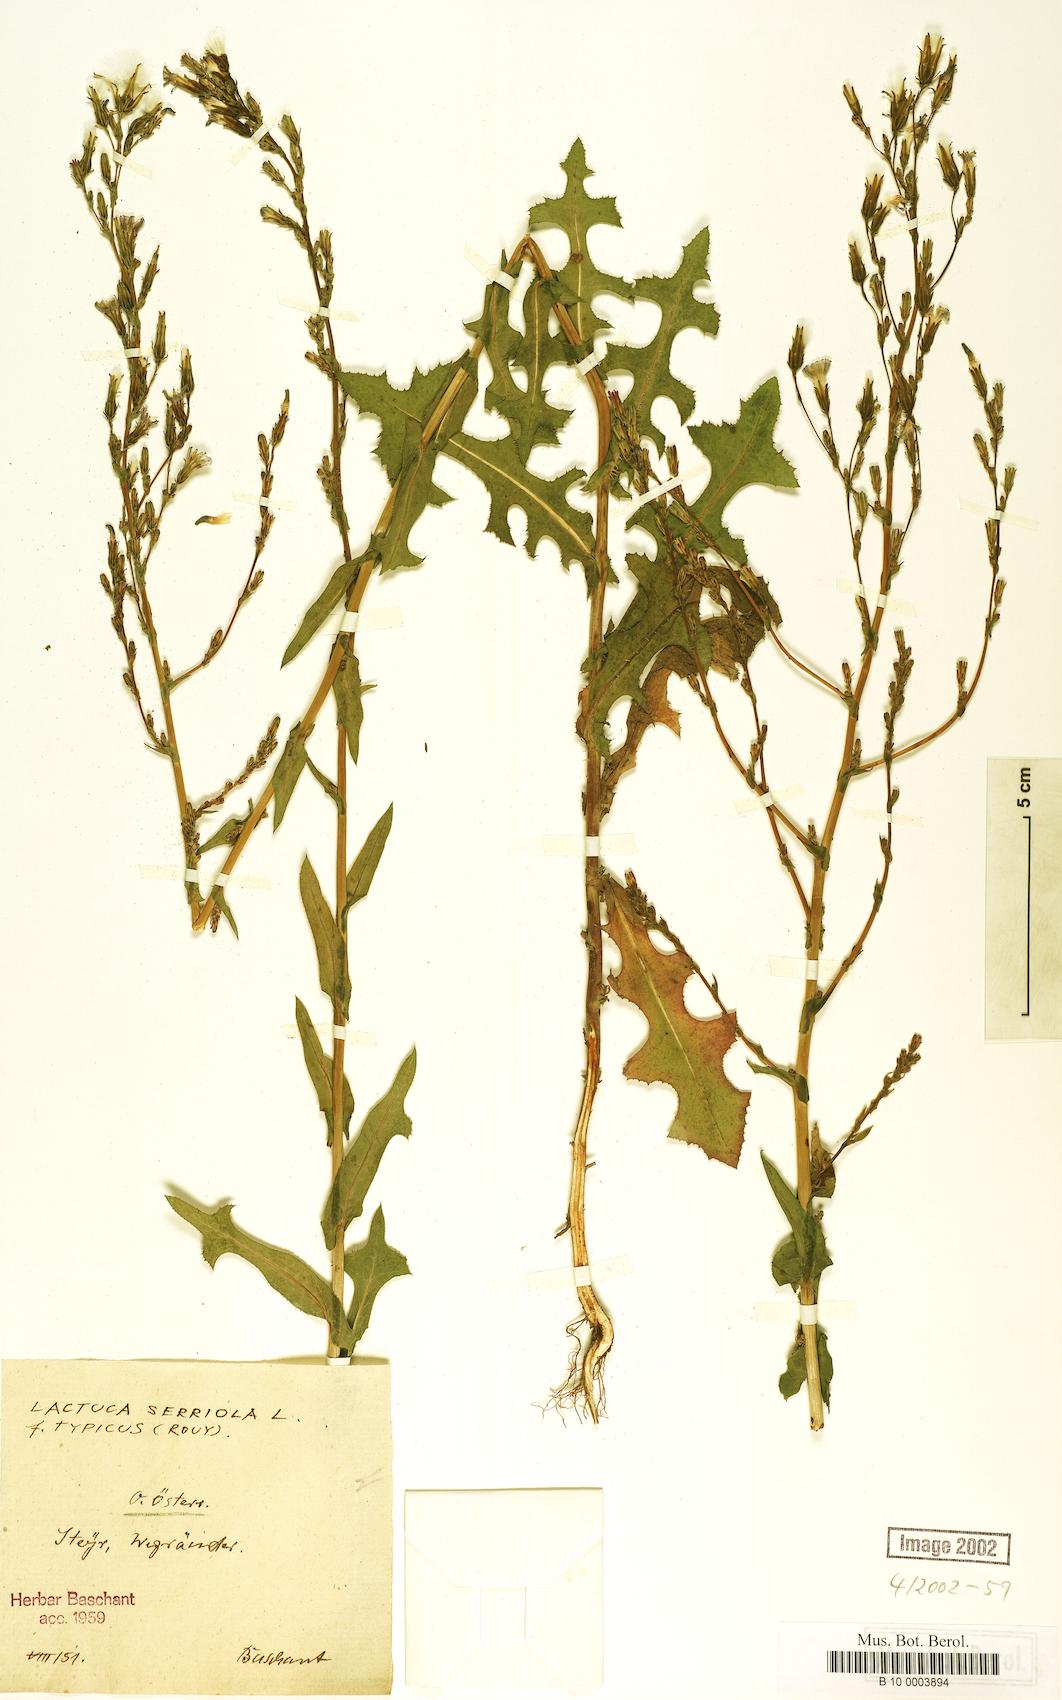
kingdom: Plantae
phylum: Tracheophyta
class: Magnoliopsida
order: Asterales
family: Asteraceae
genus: Lactuca
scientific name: Lactuca serriola
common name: Prickly lettuce
